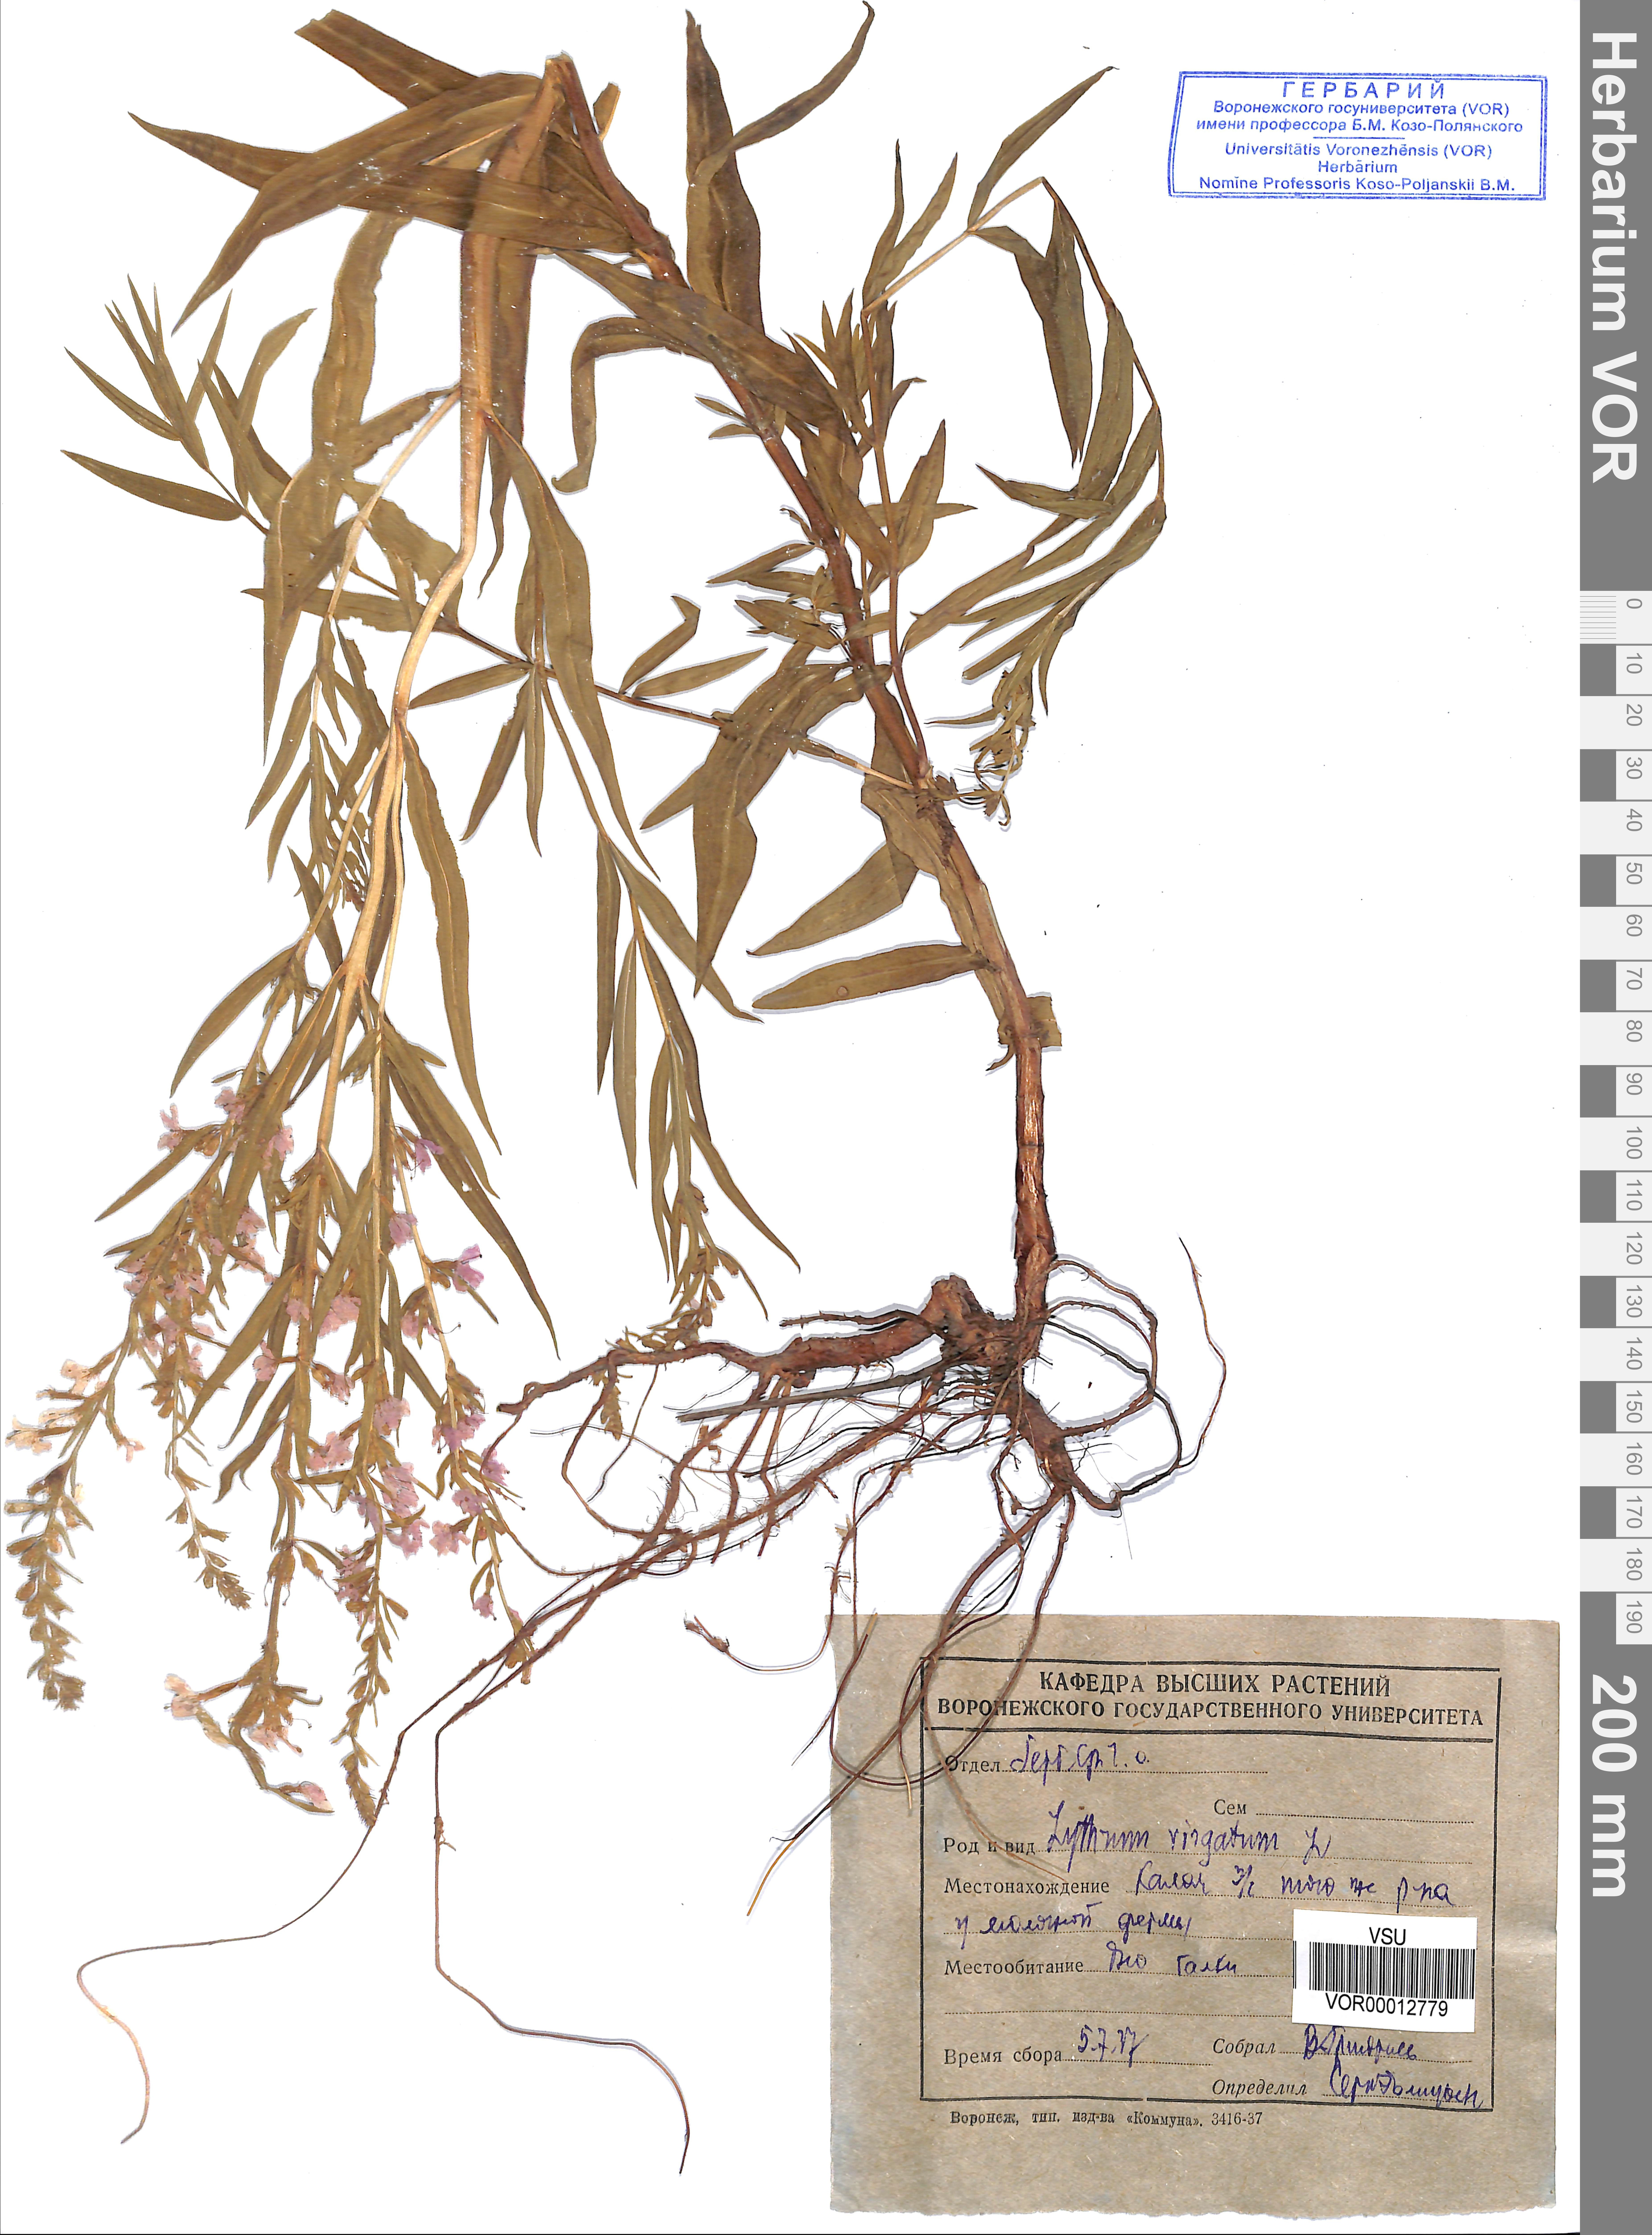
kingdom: Plantae
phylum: Tracheophyta
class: Magnoliopsida
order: Myrtales
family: Lythraceae
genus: Lythrum
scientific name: Lythrum virgatum
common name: European wand loosestrife
